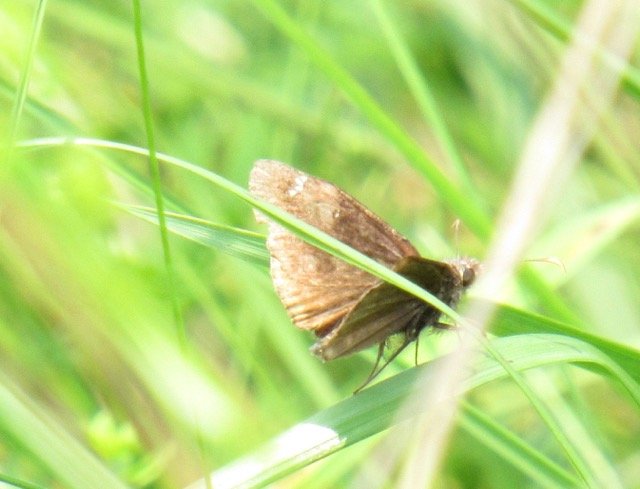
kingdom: Animalia
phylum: Arthropoda
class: Insecta
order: Lepidoptera
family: Hesperiidae
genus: Gesta
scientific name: Gesta
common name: Wild Indigo Duskywing
